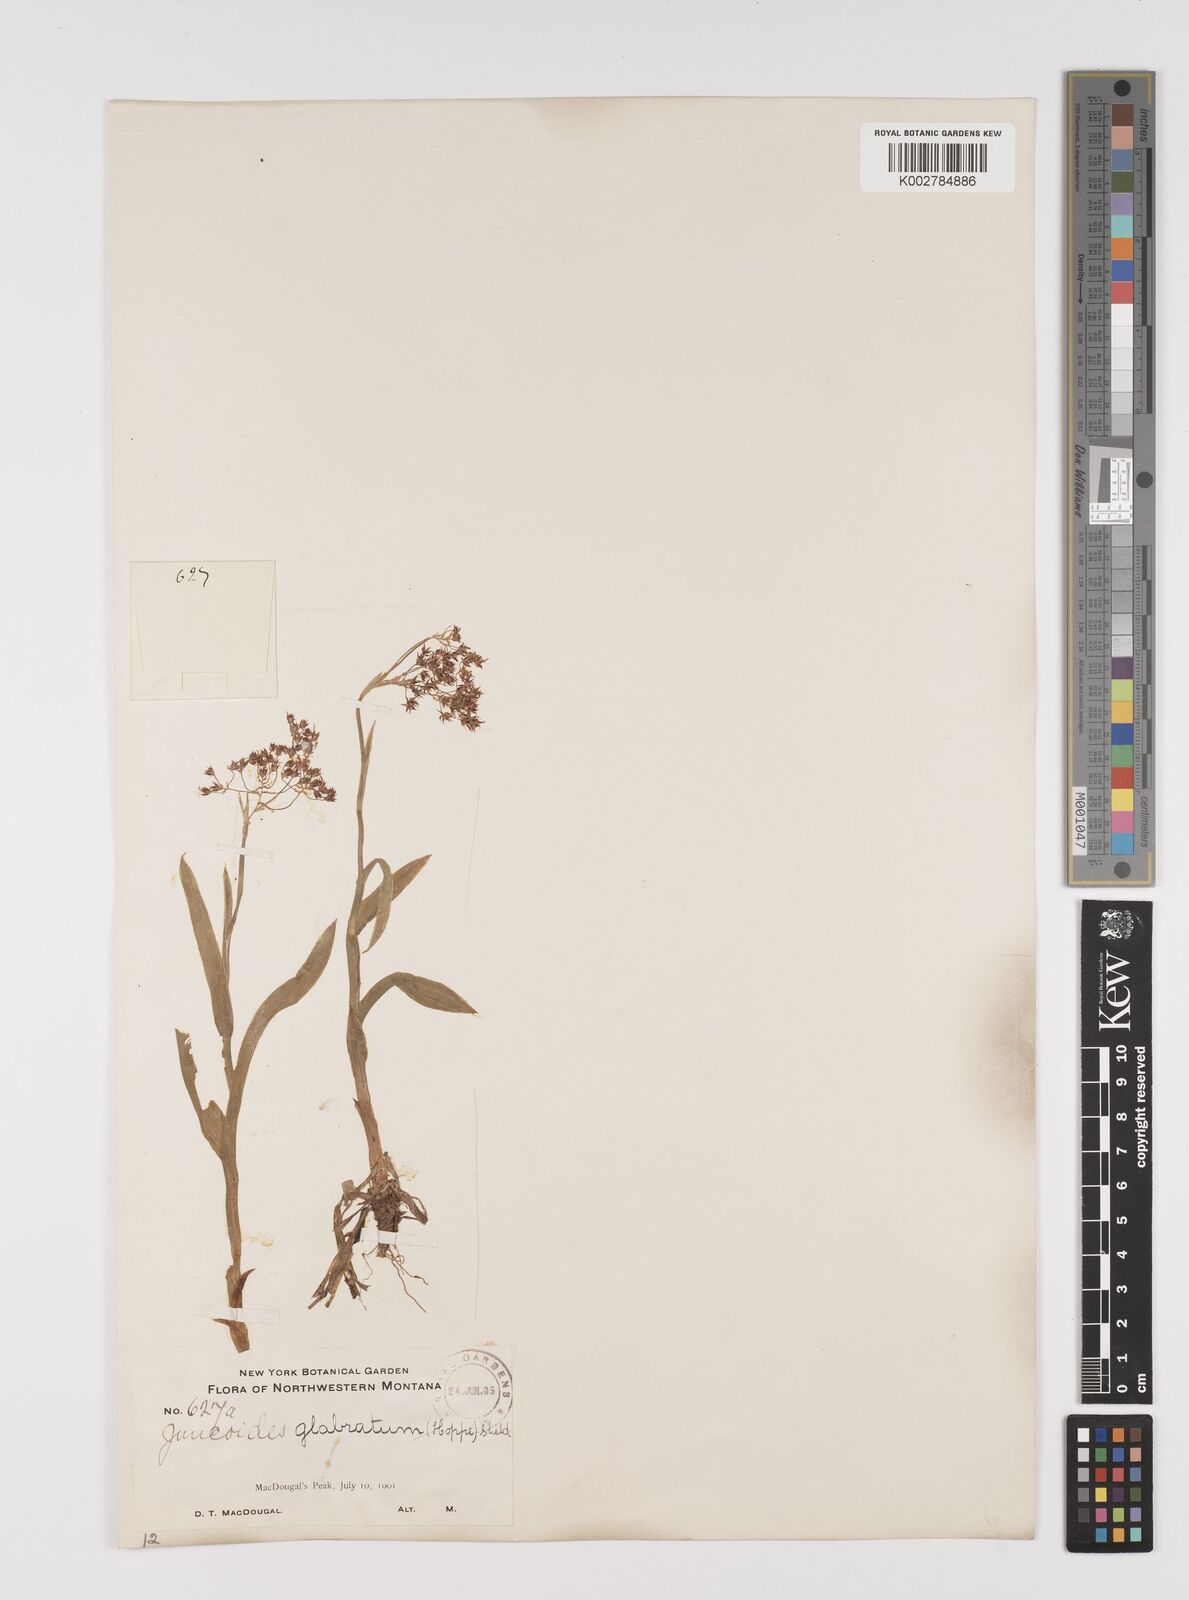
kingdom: Plantae
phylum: Tracheophyta
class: Liliopsida
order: Poales
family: Juncaceae
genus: Luzula
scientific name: Luzula glabrata
